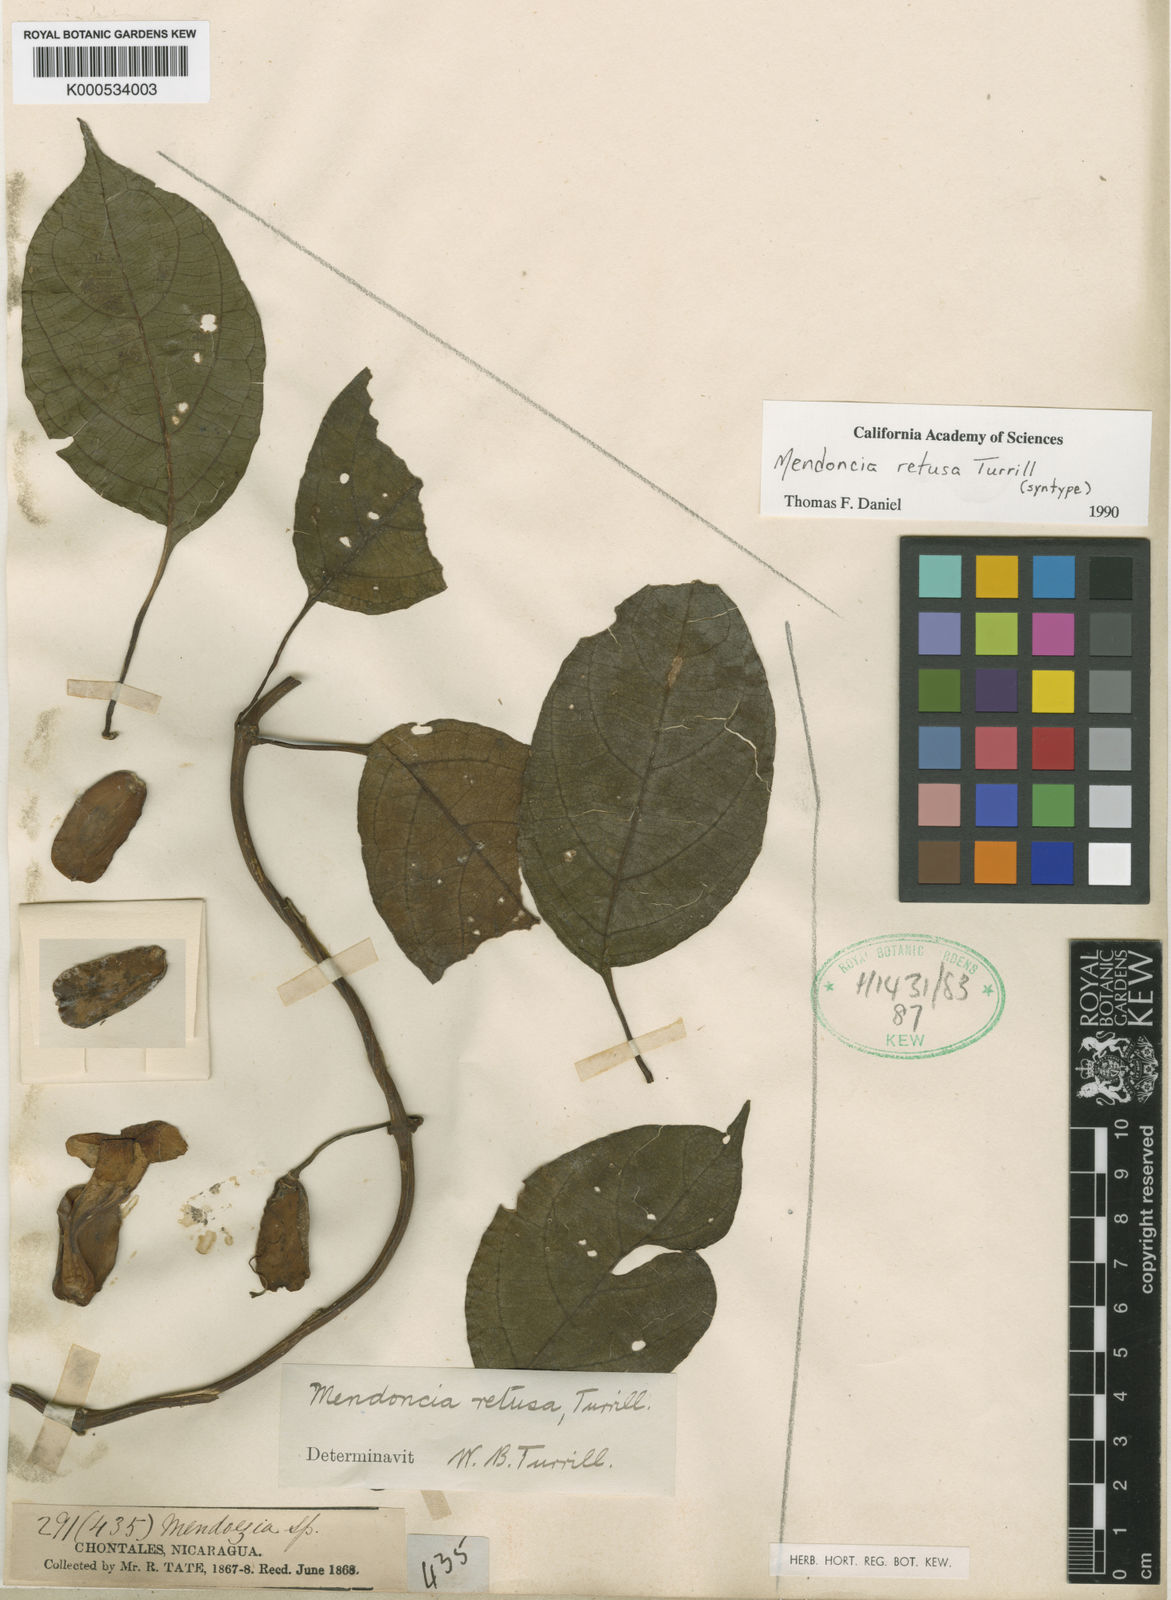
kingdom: Plantae
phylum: Tracheophyta
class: Magnoliopsida
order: Lamiales
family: Acanthaceae
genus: Mendoncia
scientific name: Mendoncia retusa
